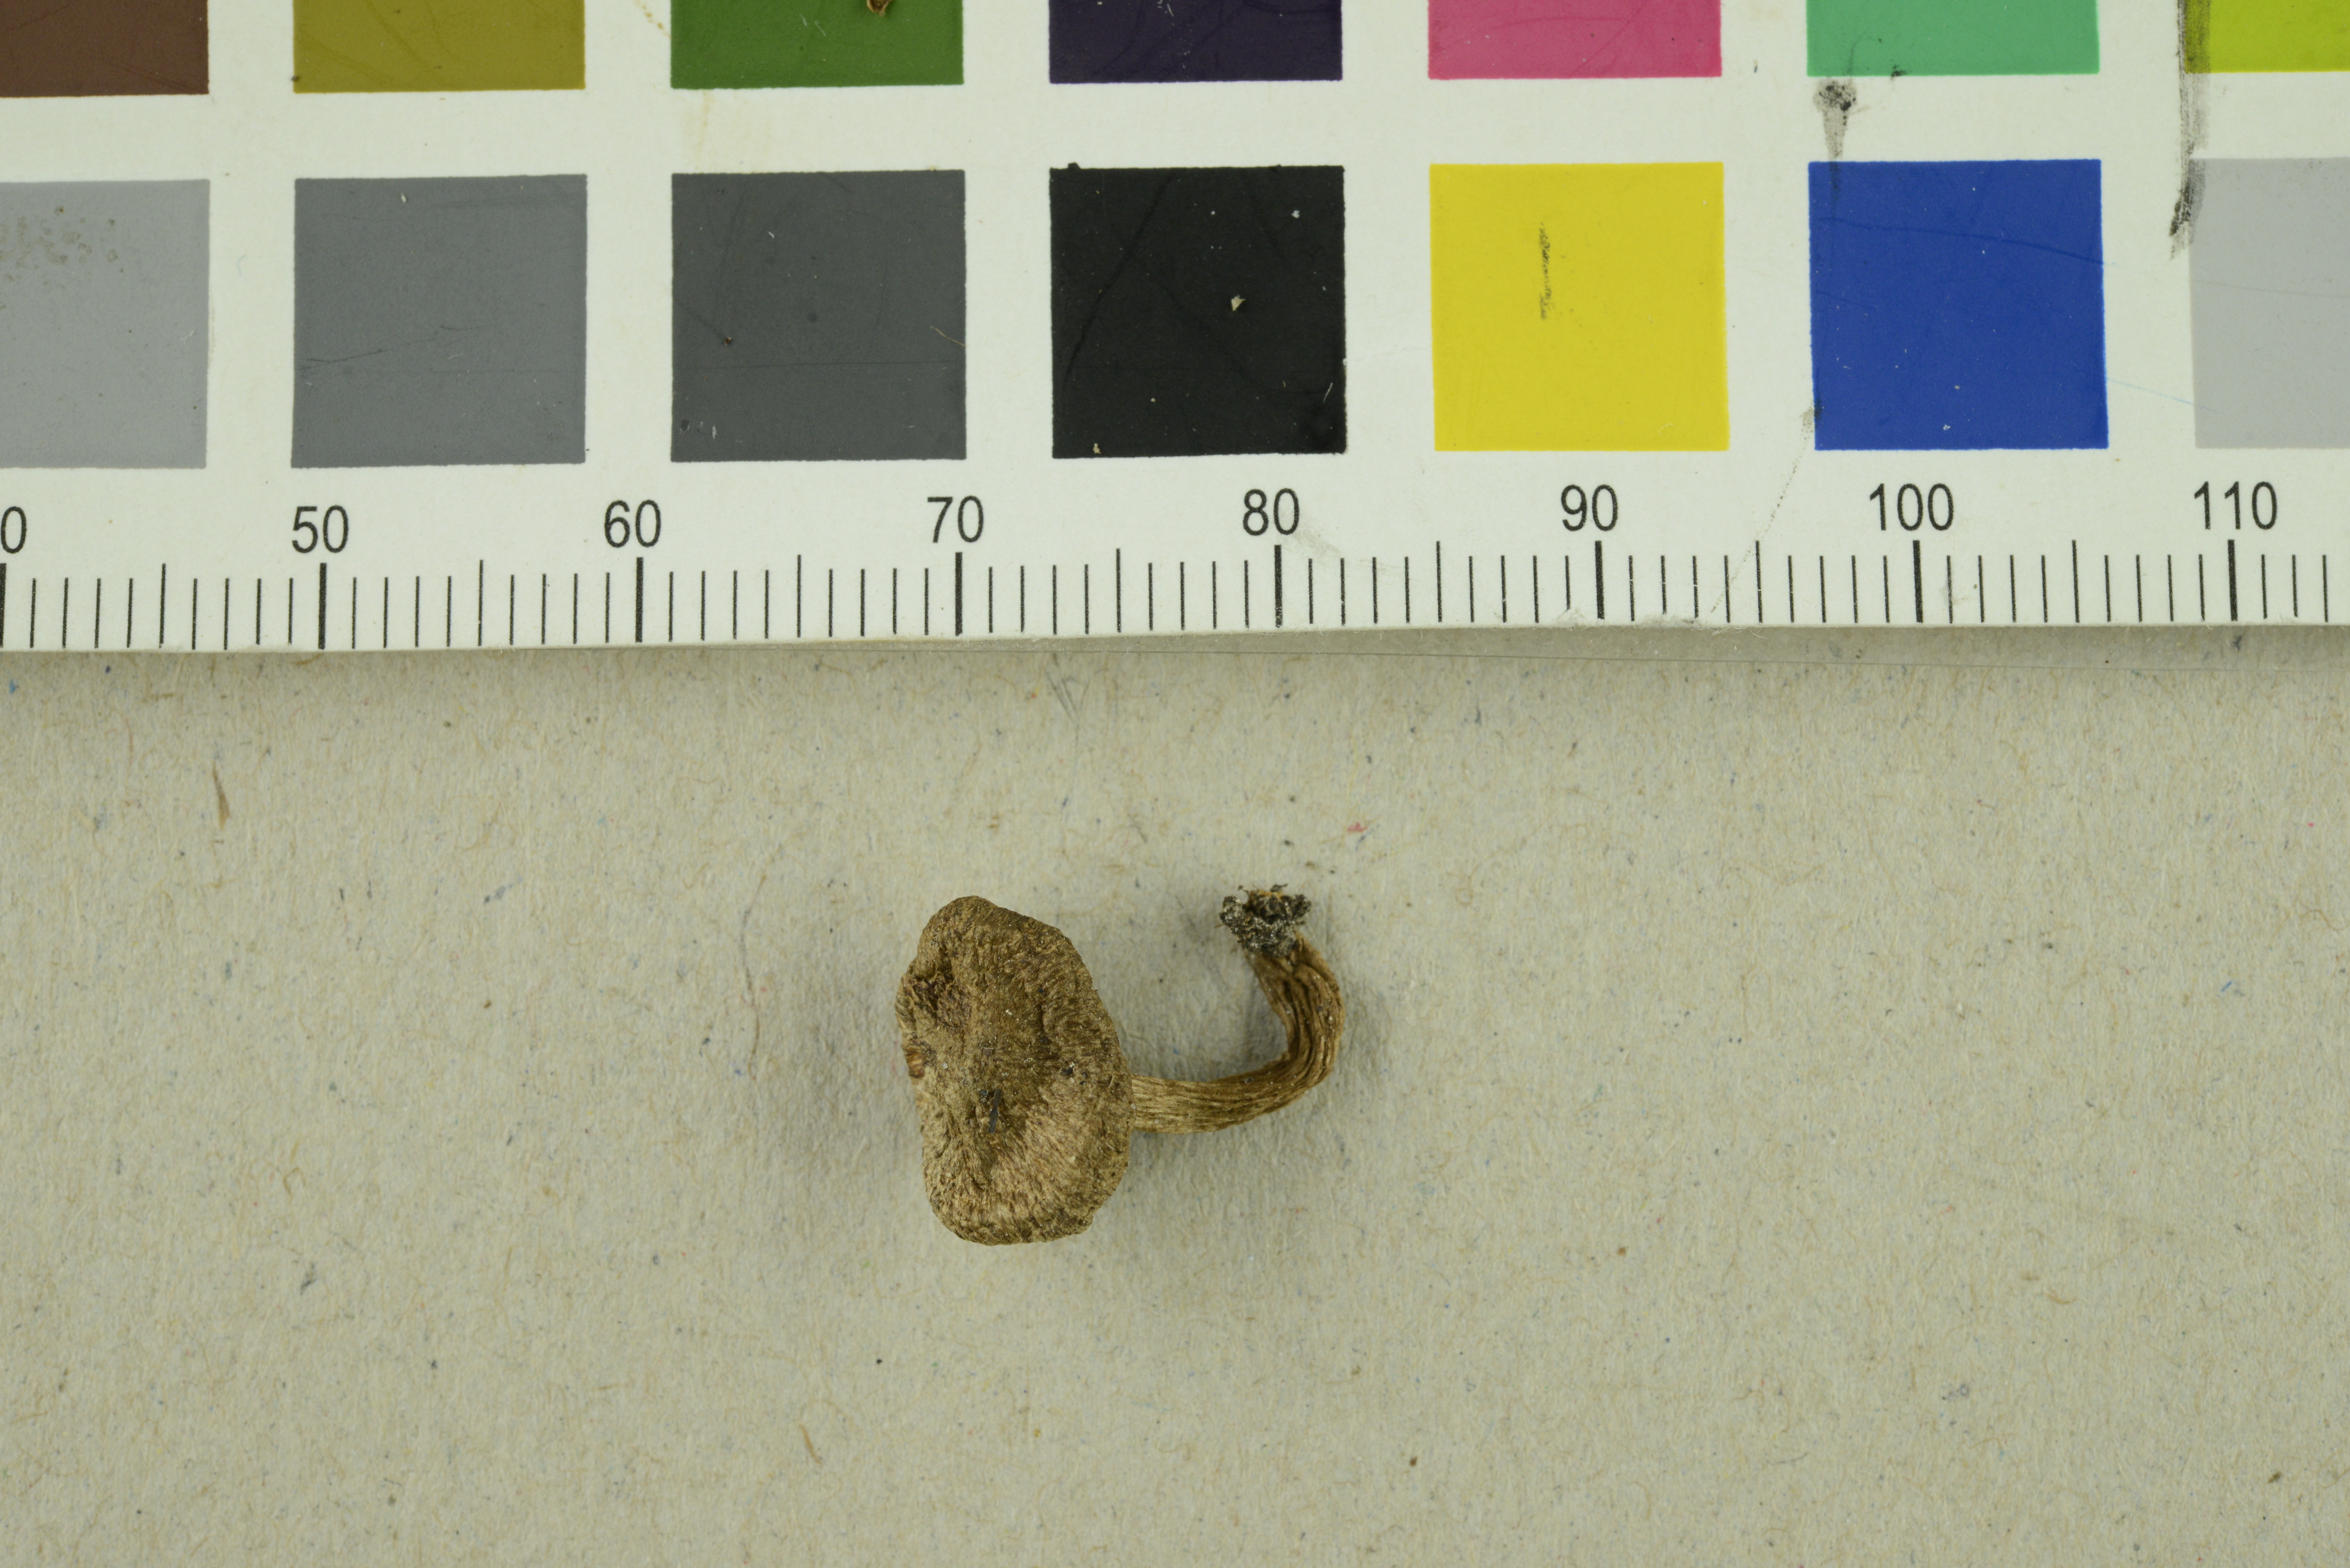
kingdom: Fungi
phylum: Basidiomycota
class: Agaricomycetes
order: Agaricales
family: Inocybaceae
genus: Inocybe
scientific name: Inocybe lanuginosa
